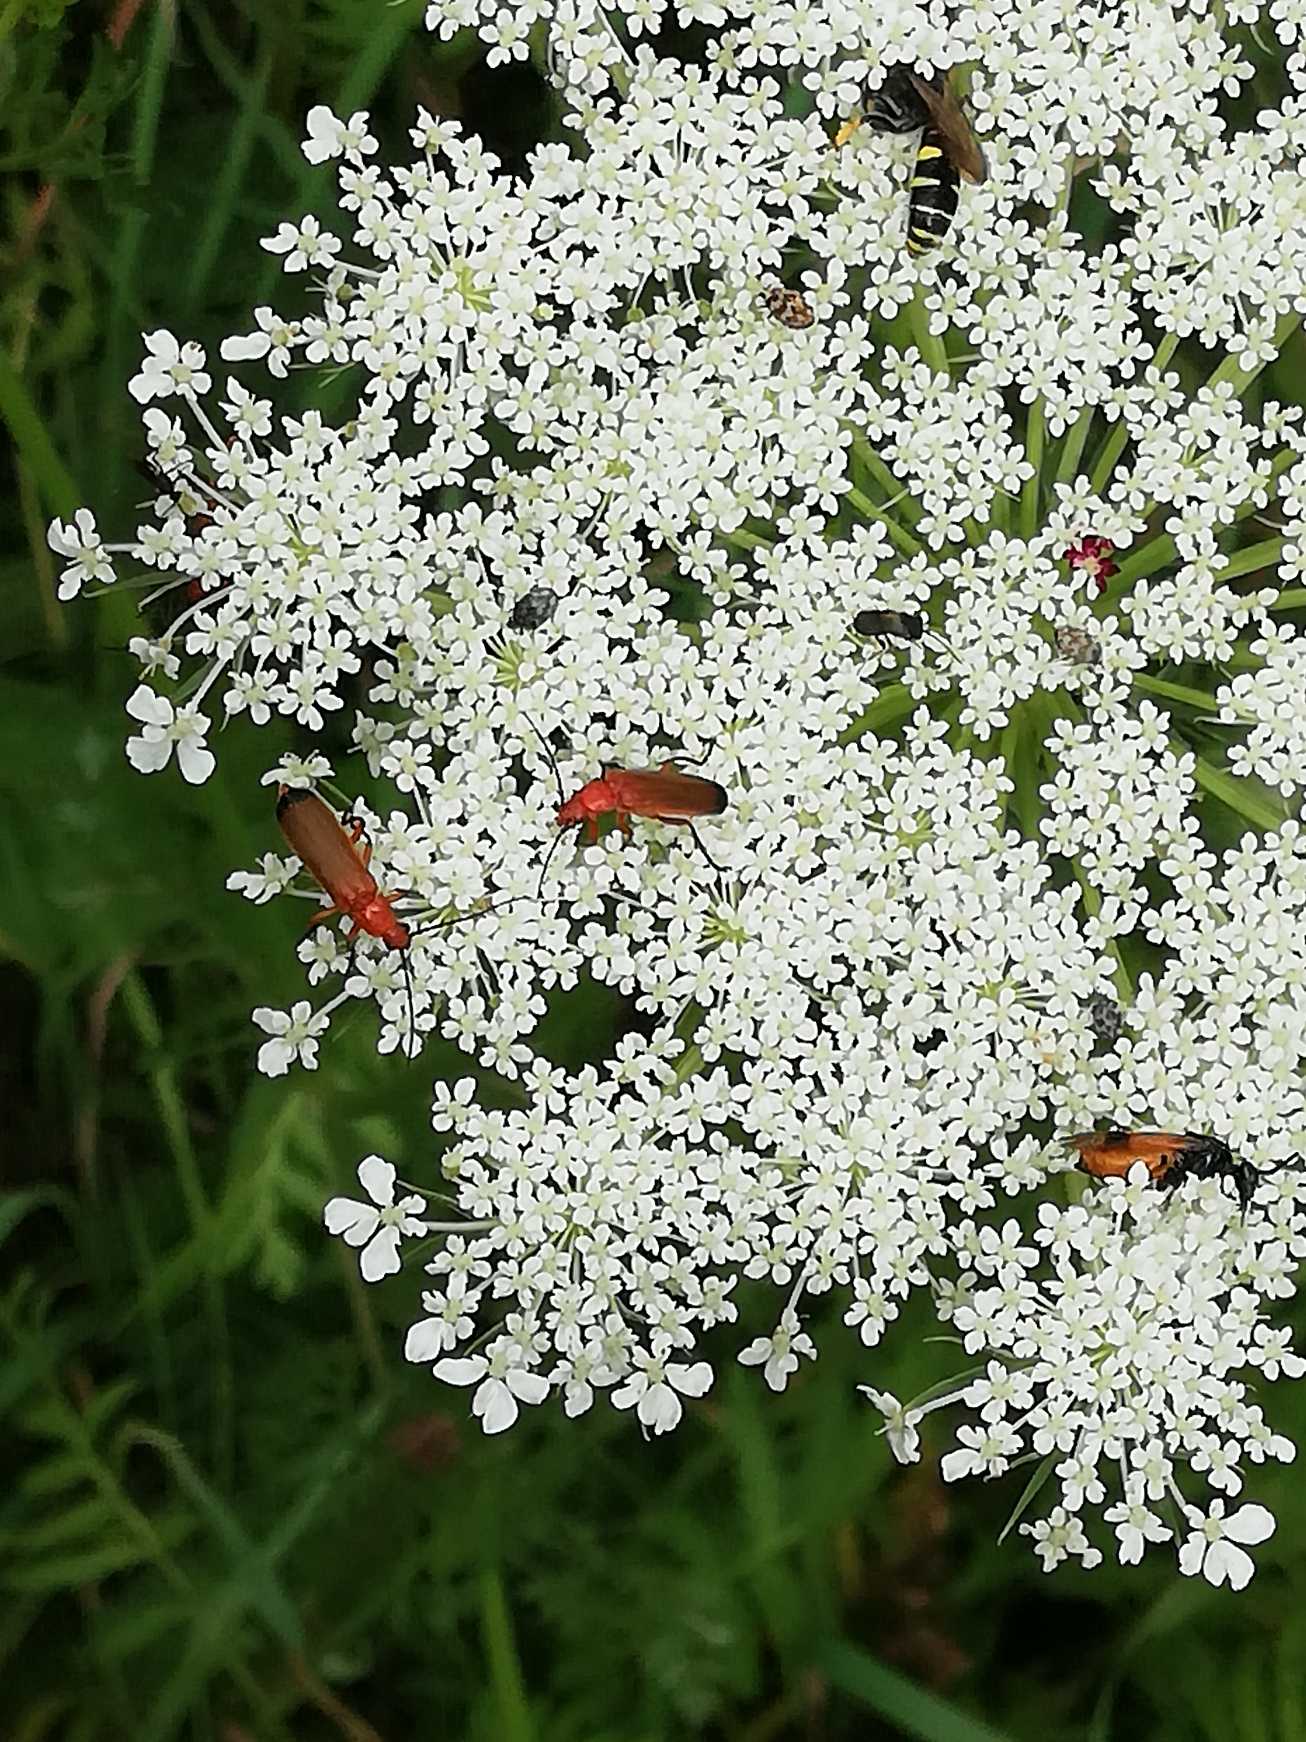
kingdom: Animalia
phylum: Arthropoda
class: Insecta
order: Coleoptera
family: Cantharidae
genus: Rhagonycha
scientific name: Rhagonycha fulva
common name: Præstebille
